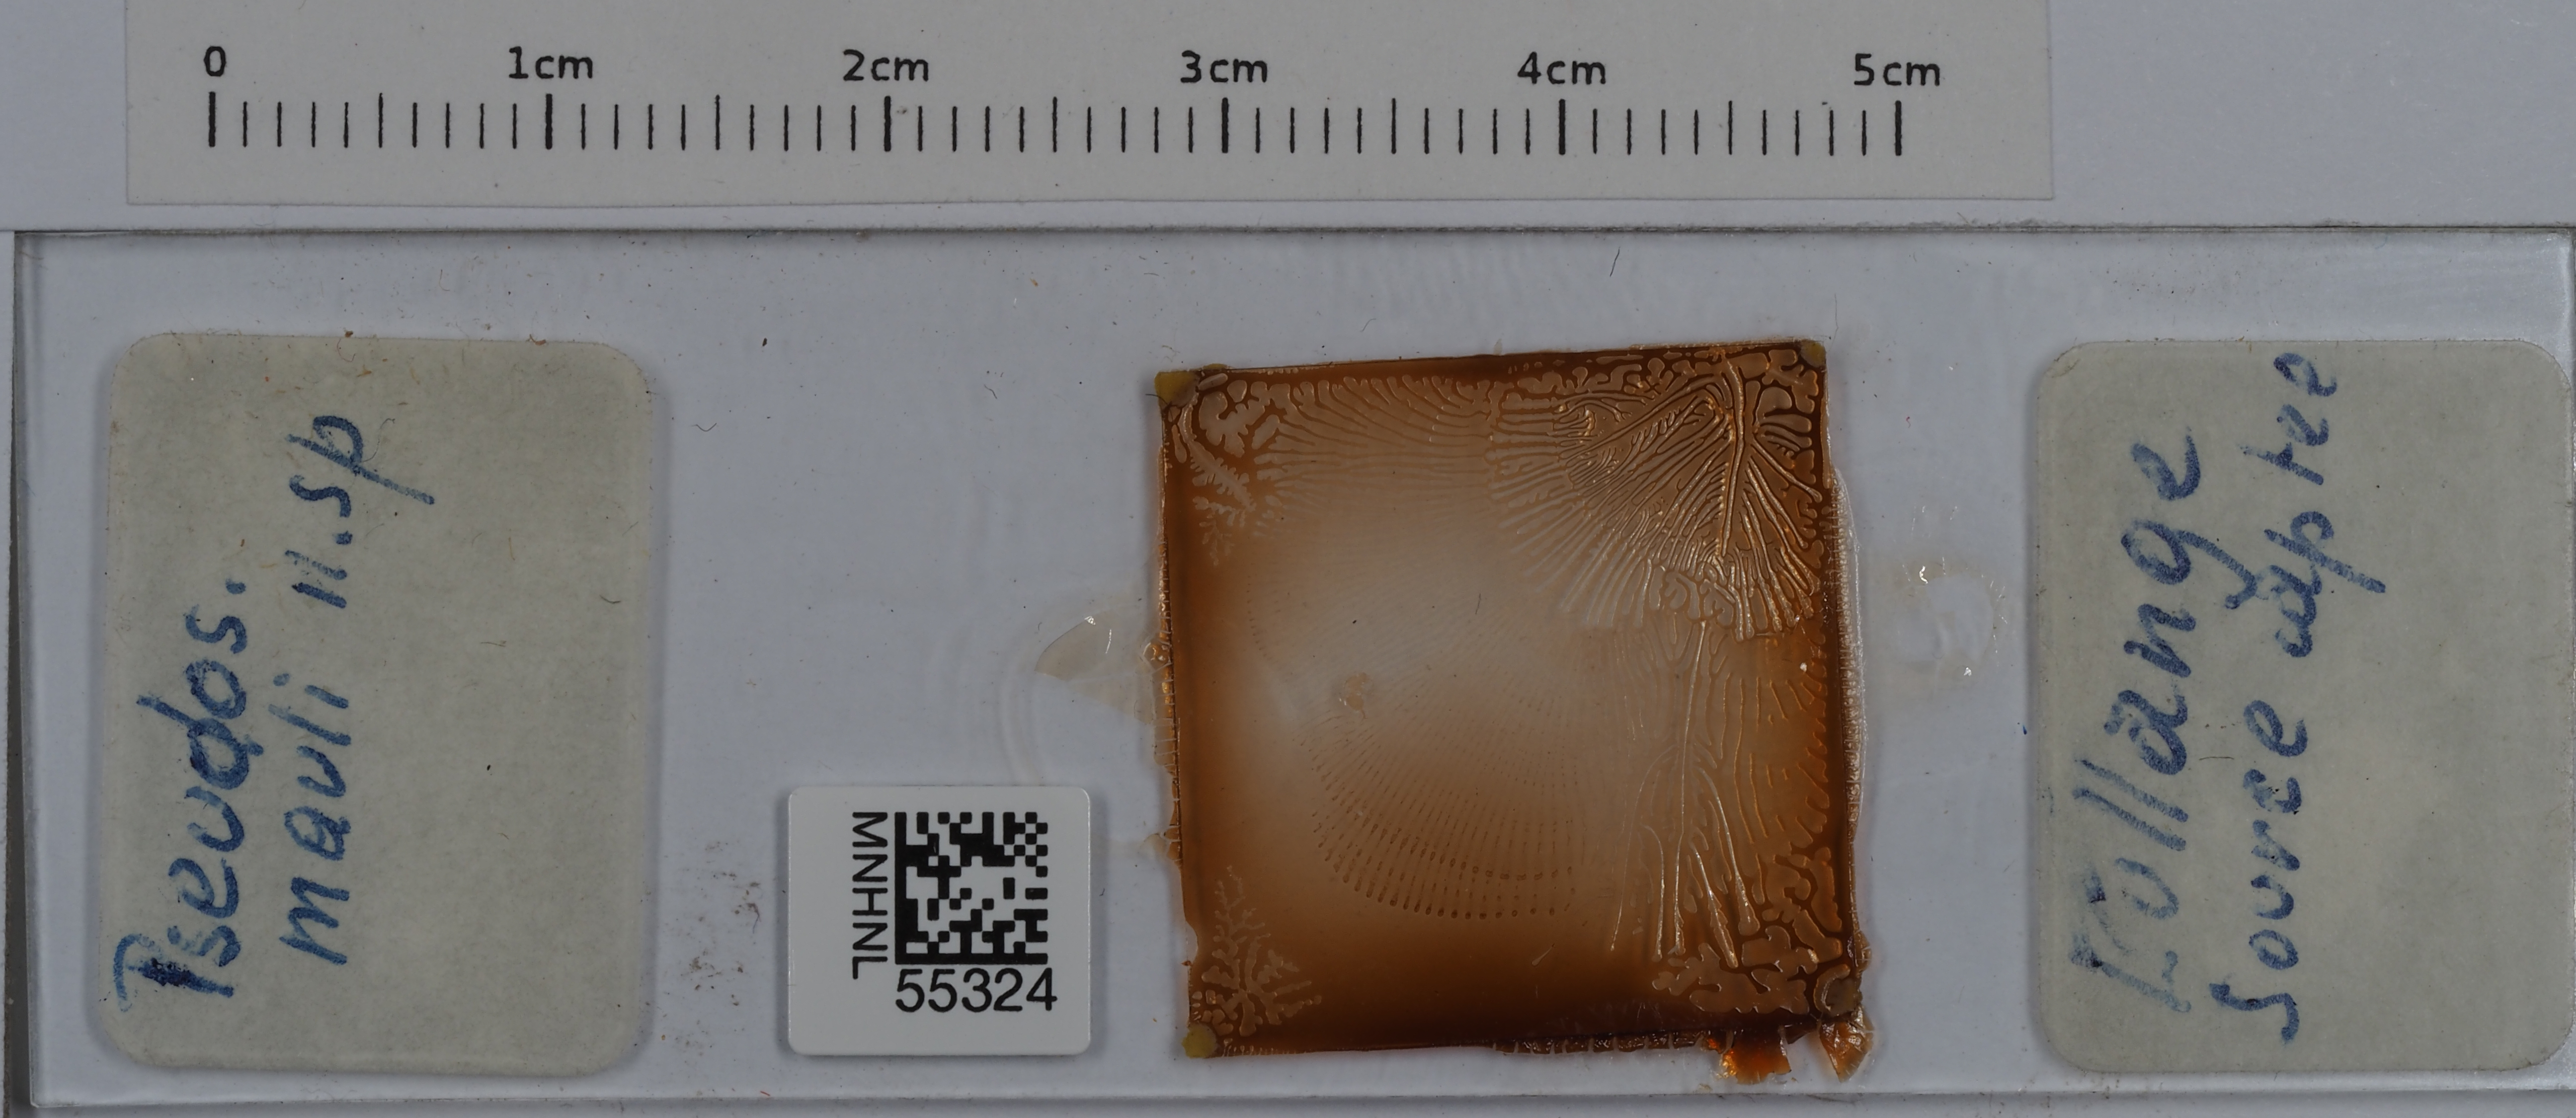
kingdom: Animalia
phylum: Arthropoda
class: Collembola
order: Entomobryomorpha
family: Entomobryidae
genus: Pseudosinella
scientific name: Pseudosinella mauli
